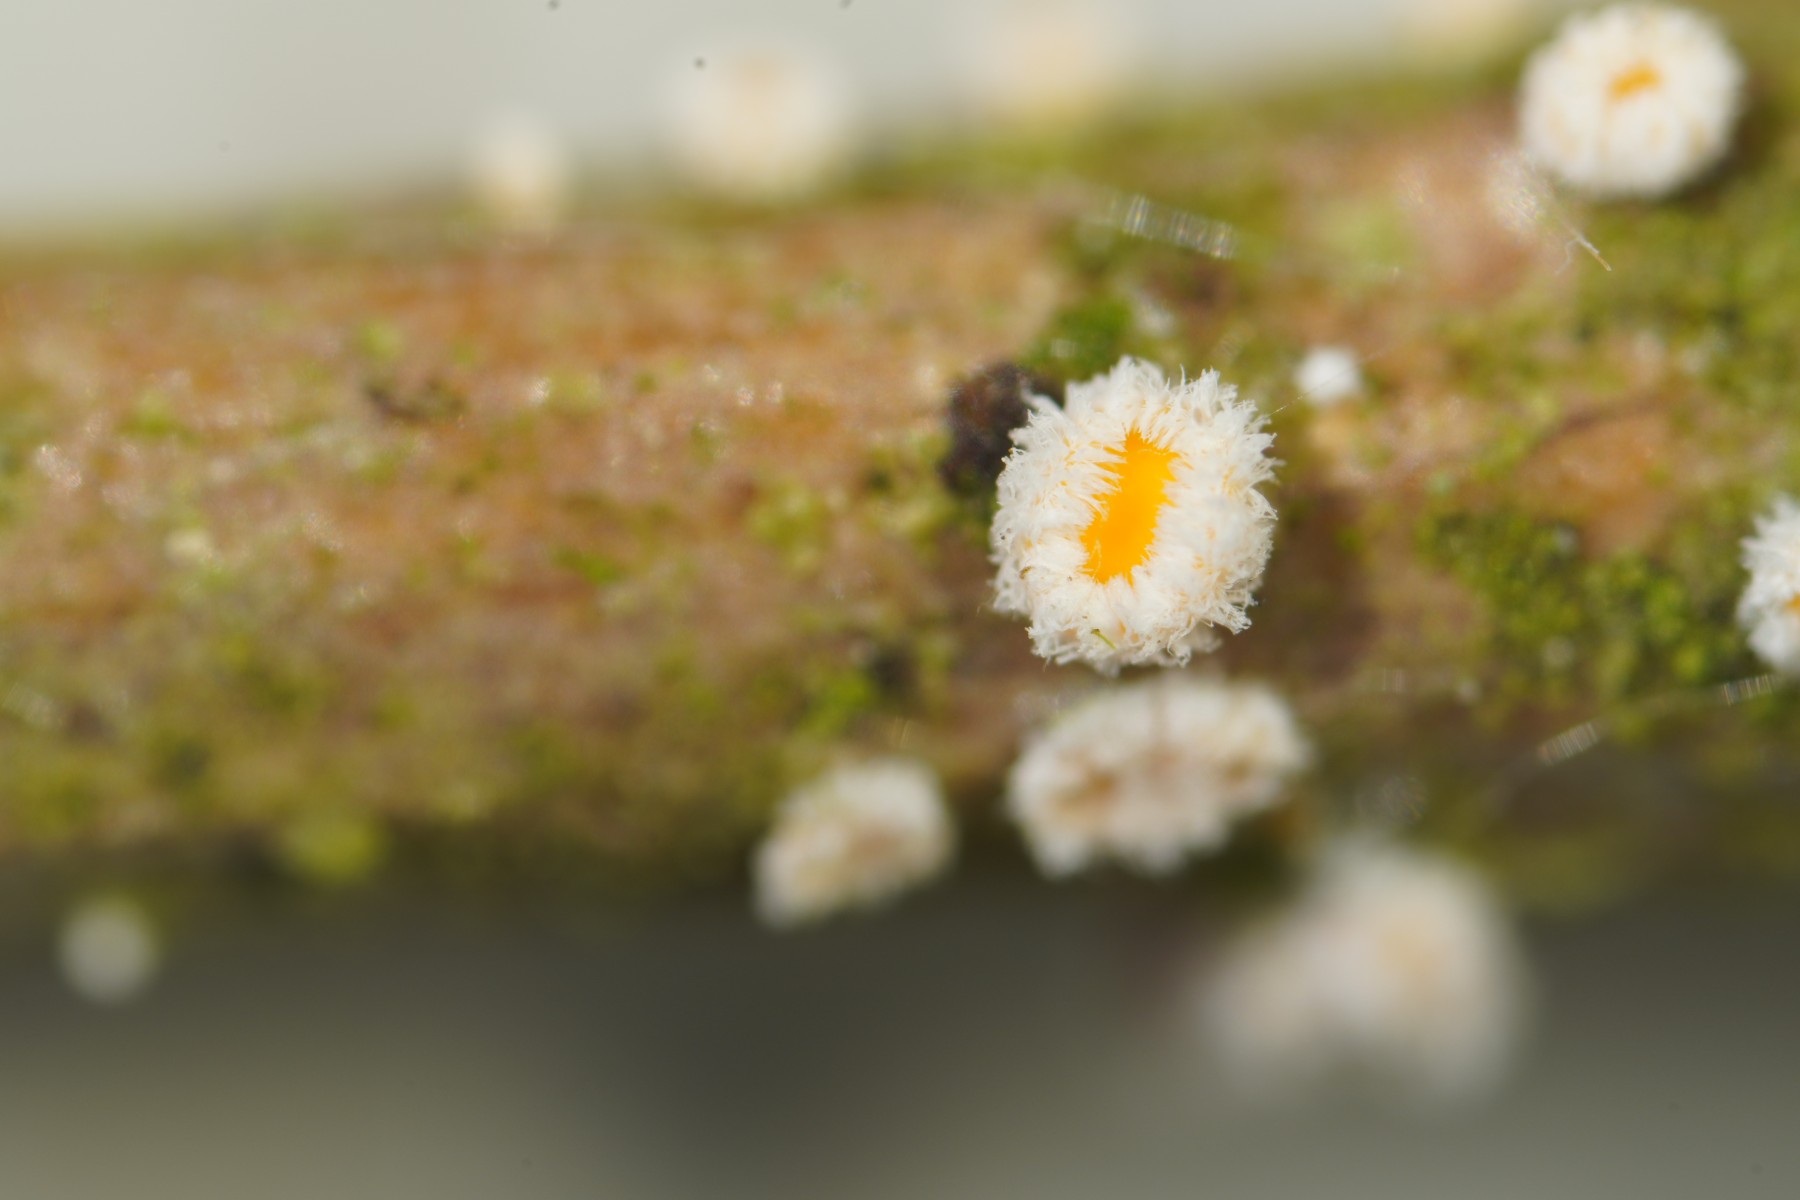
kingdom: Fungi
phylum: Ascomycota
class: Leotiomycetes
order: Helotiales
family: Lachnaceae
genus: Capitotricha
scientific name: Capitotricha bicolor
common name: prægtig frynseskive
